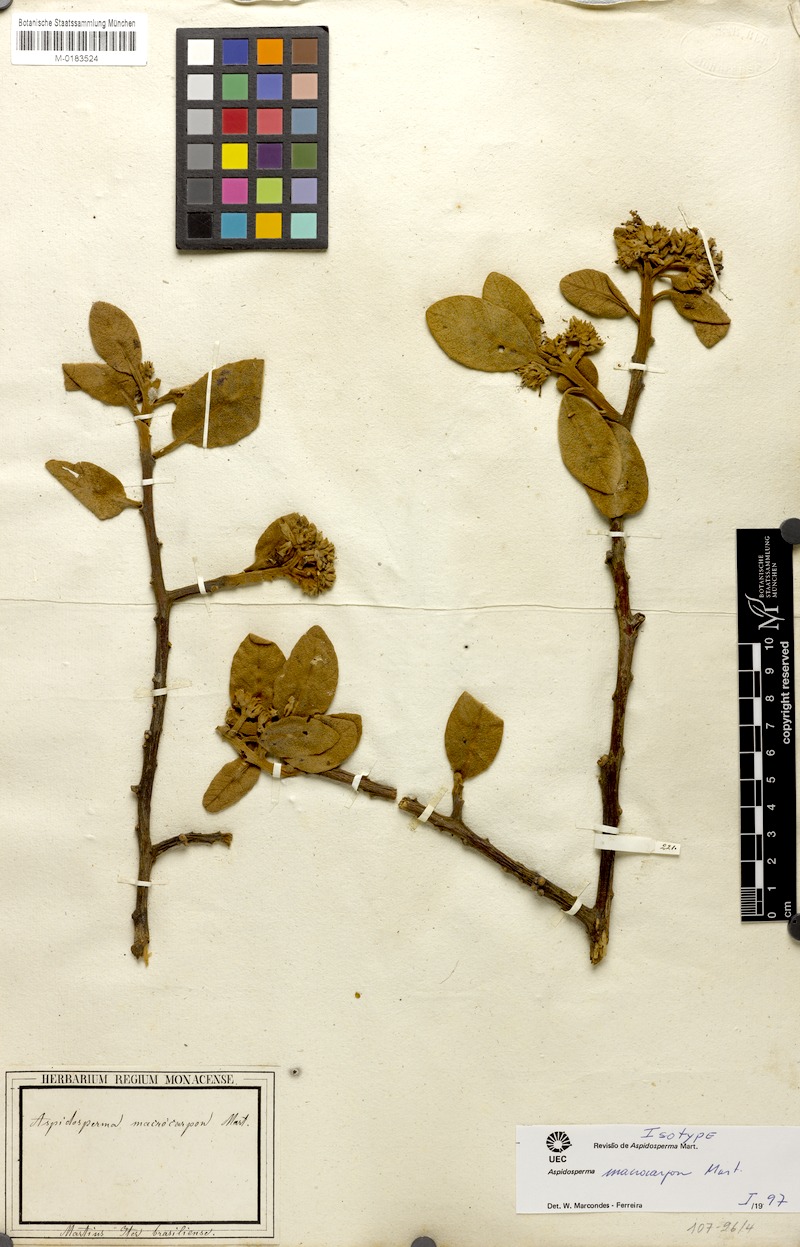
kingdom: Plantae
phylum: Tracheophyta
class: Magnoliopsida
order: Gentianales
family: Apocynaceae
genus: Aspidosperma
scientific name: Aspidosperma macrocarpon
